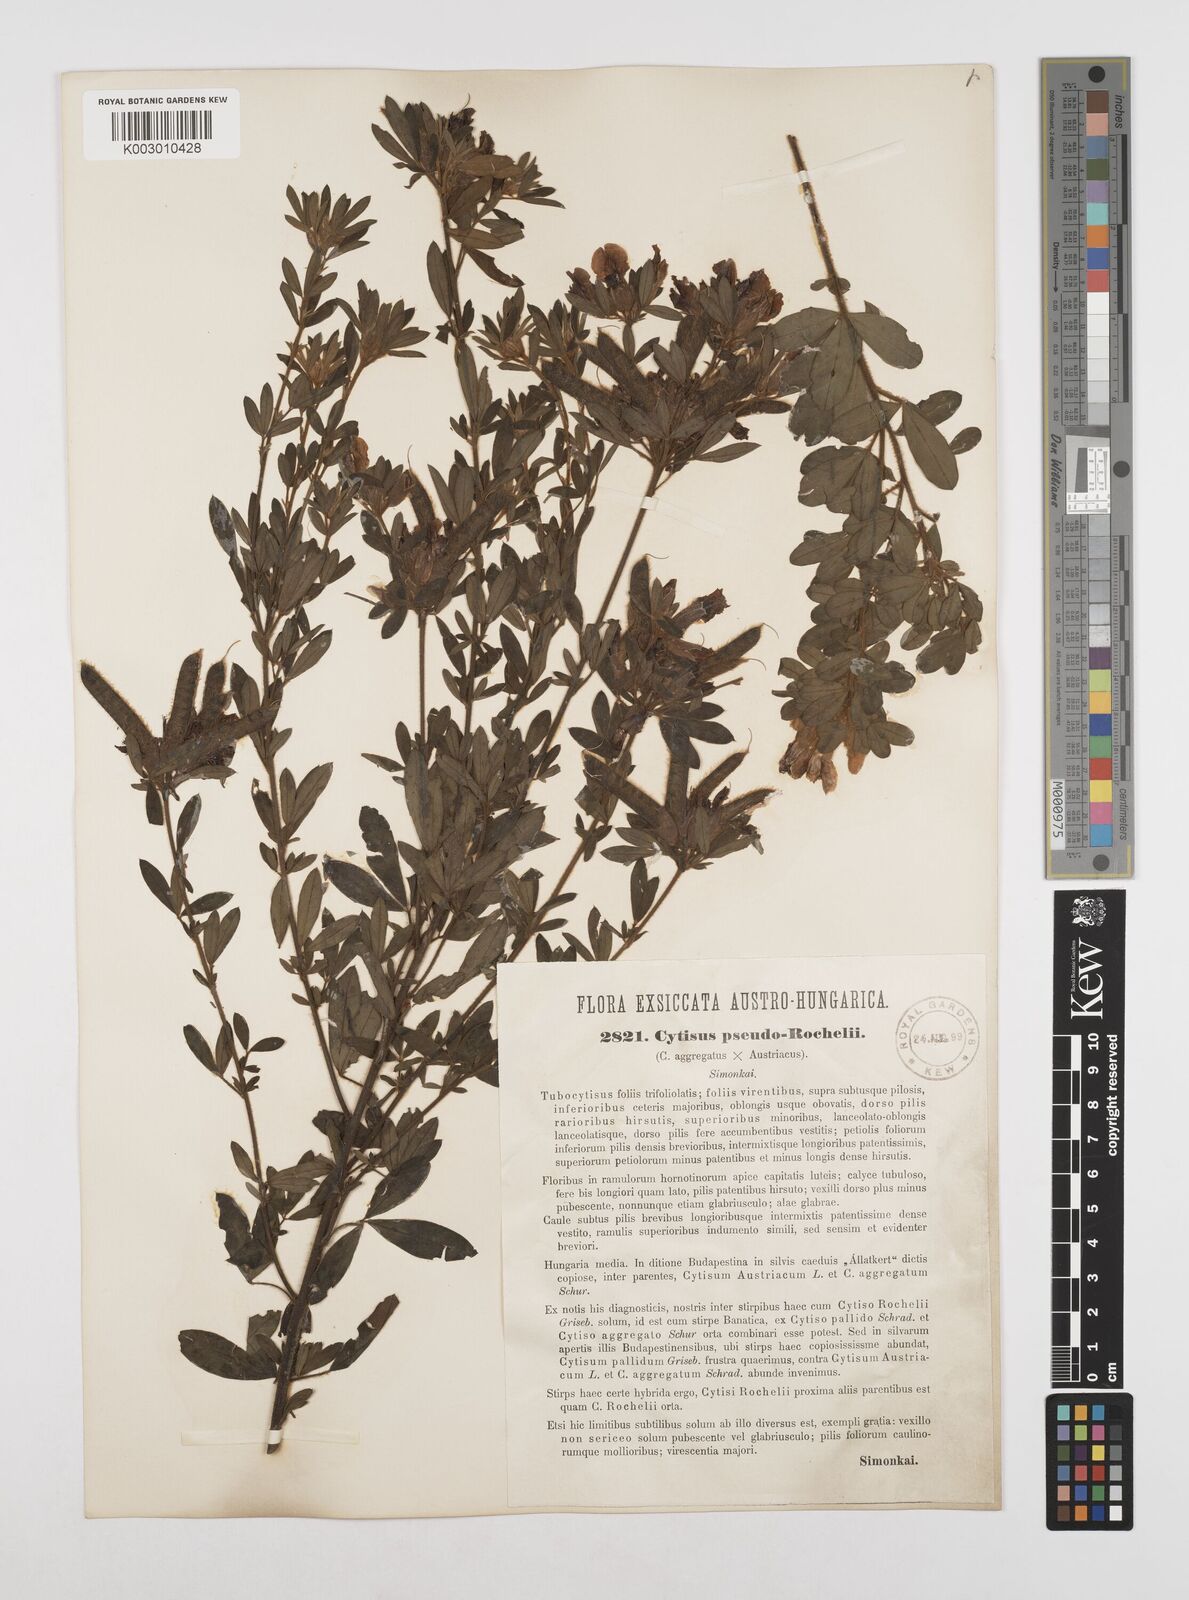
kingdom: Plantae
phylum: Tracheophyta
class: Magnoliopsida
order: Fabales
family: Fabaceae
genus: Chamaecytisus
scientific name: Chamaecytisus austriacus
